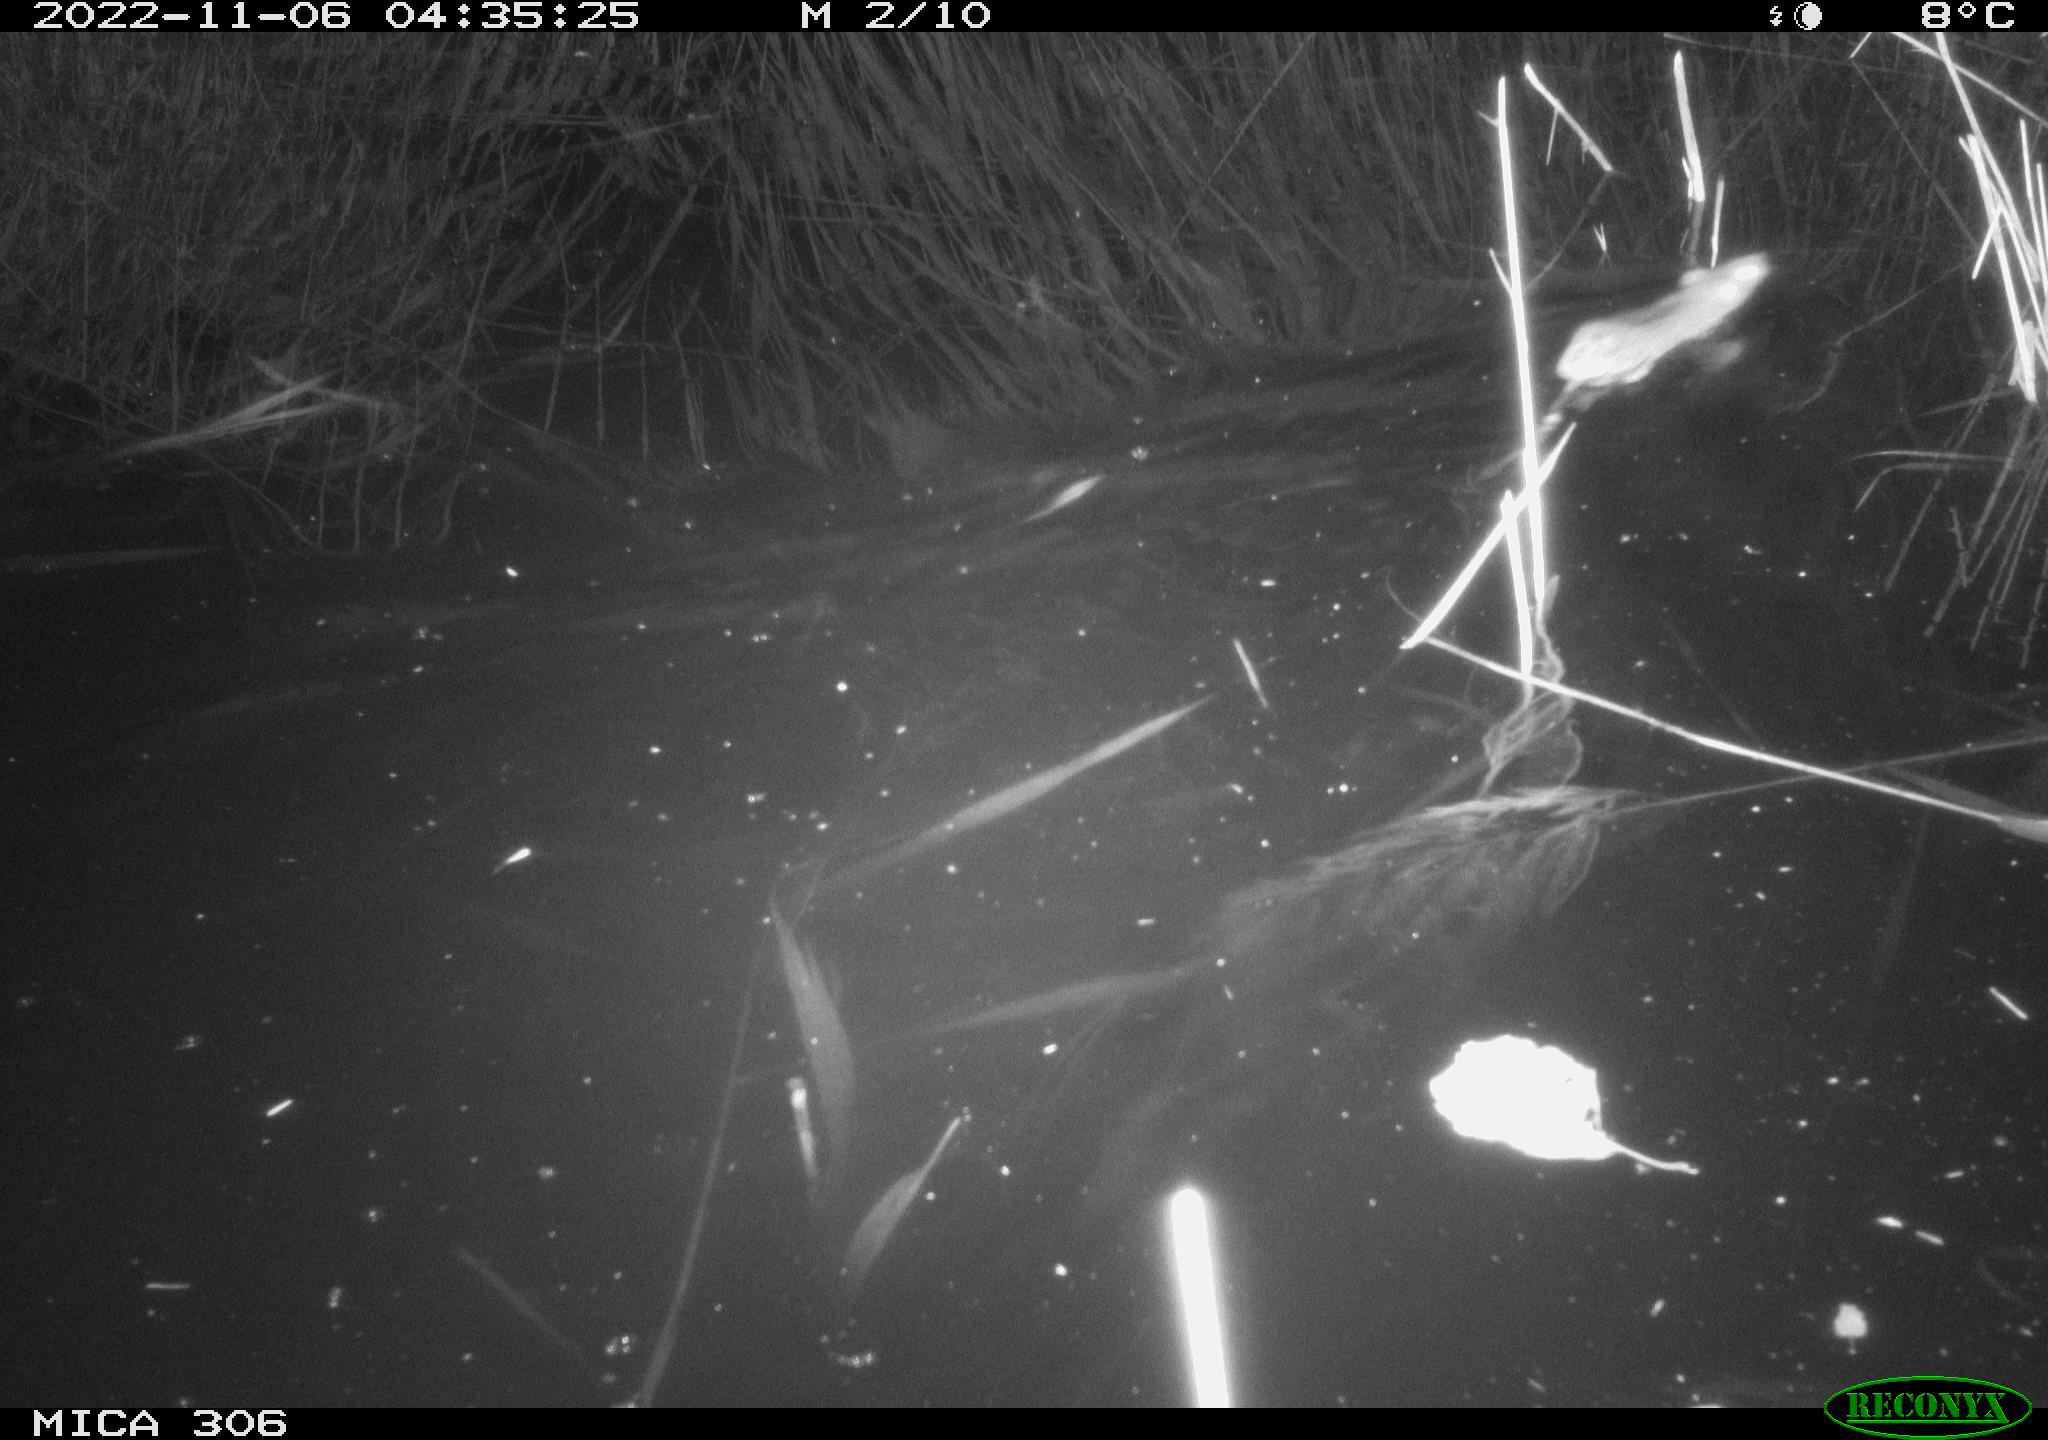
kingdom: Animalia
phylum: Chordata
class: Mammalia
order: Rodentia
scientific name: Rodentia
